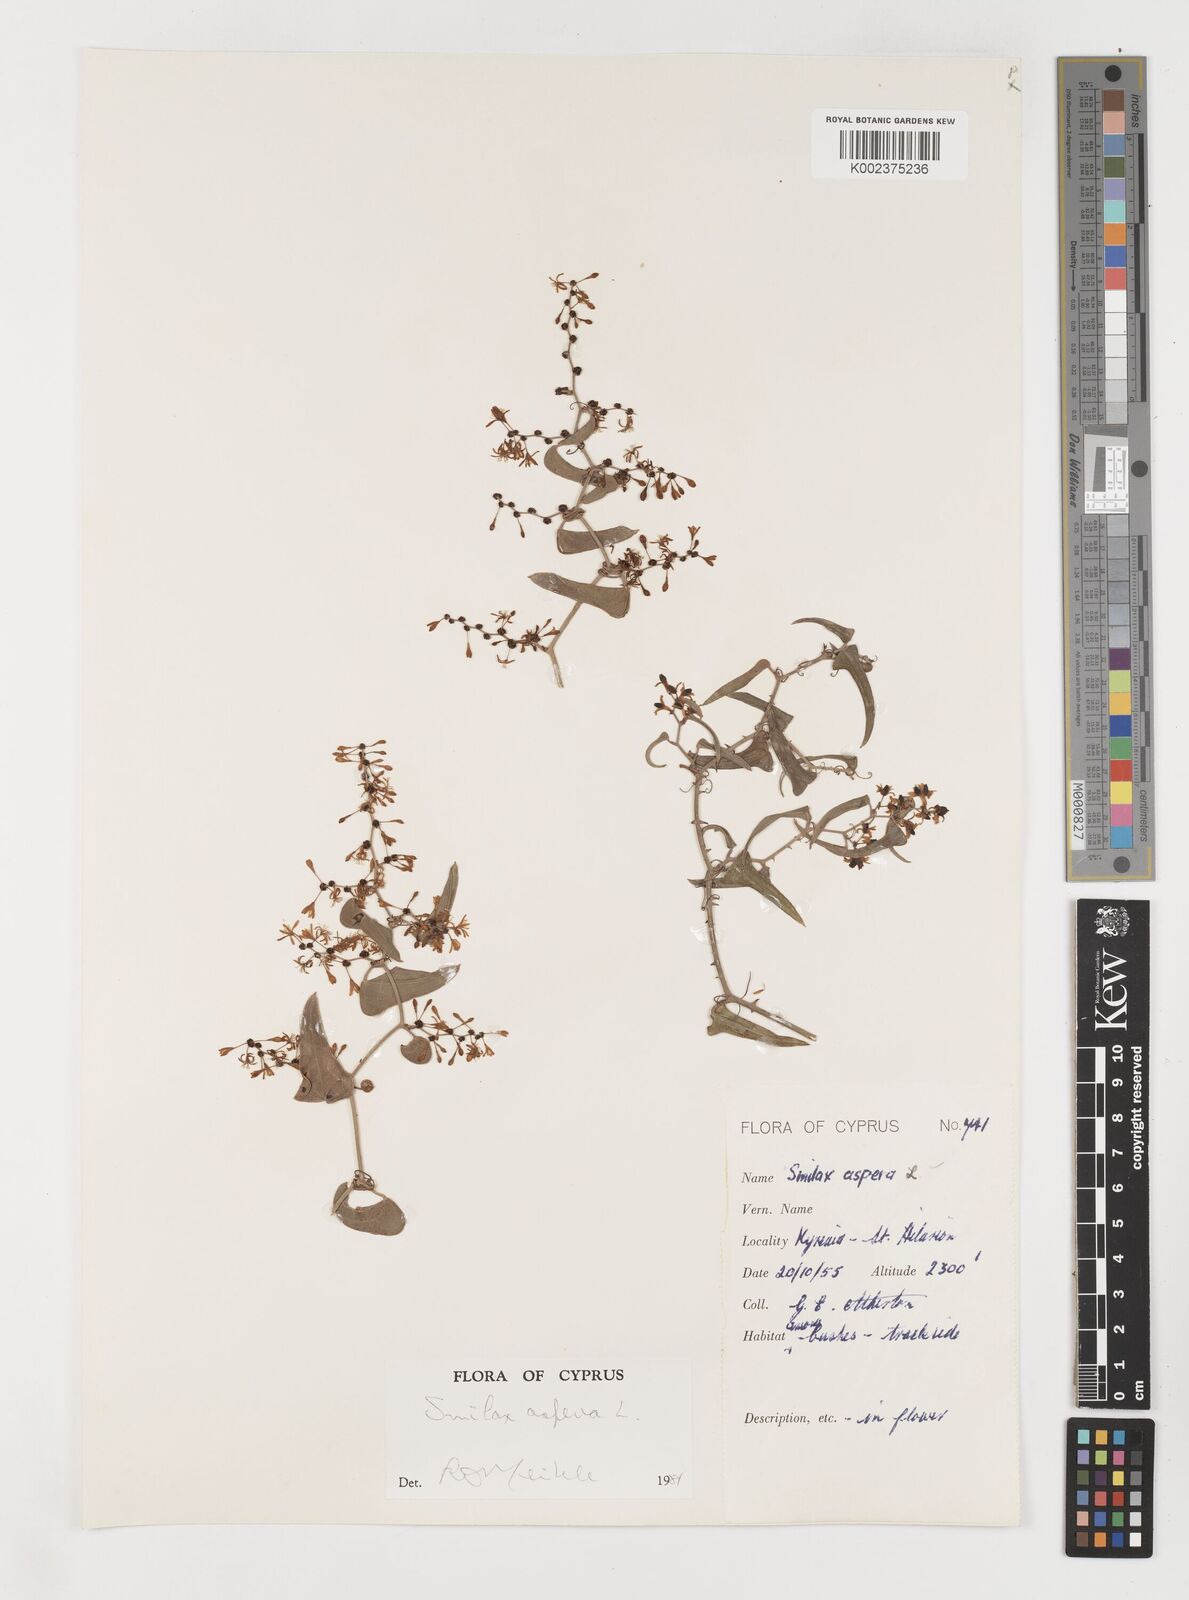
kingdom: Plantae
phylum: Tracheophyta
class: Liliopsida
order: Liliales
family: Smilacaceae
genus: Smilax
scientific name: Smilax aspera
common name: Common smilax
